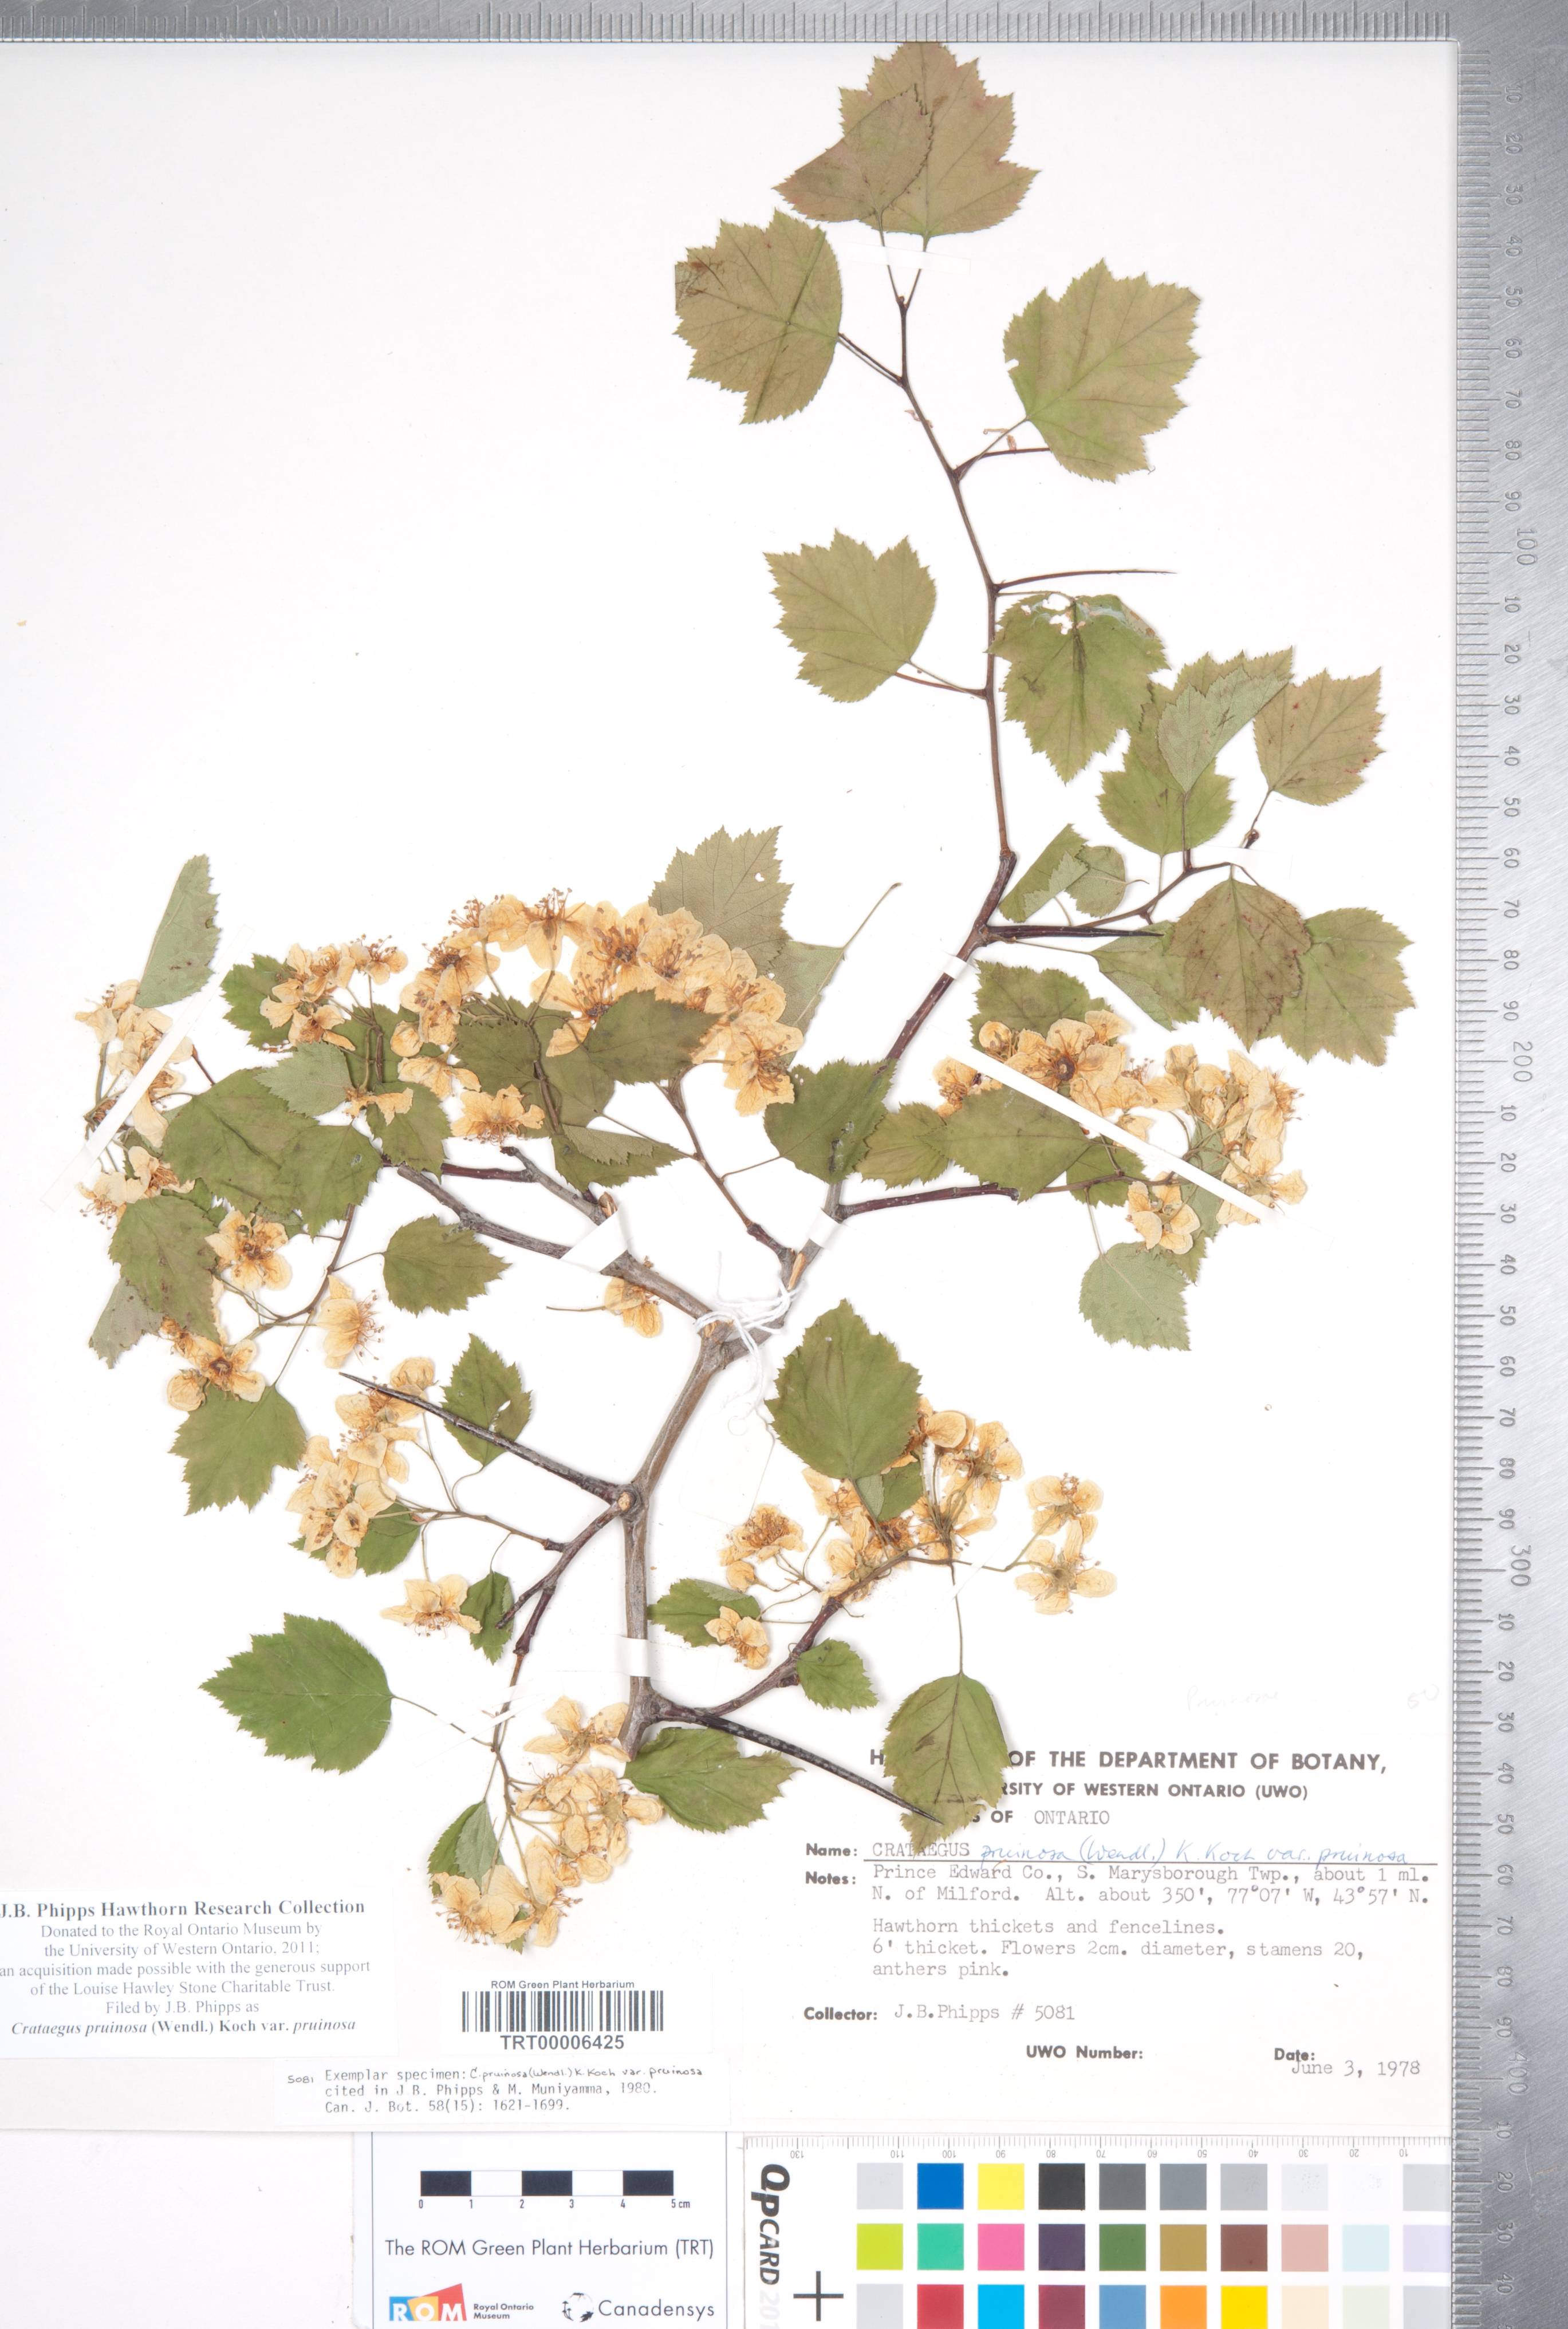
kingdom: Plantae
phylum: Tracheophyta
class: Magnoliopsida
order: Rosales
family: Rosaceae
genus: Crataegus
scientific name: Crataegus pruinosa
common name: Waxy-fruit hawthorn
